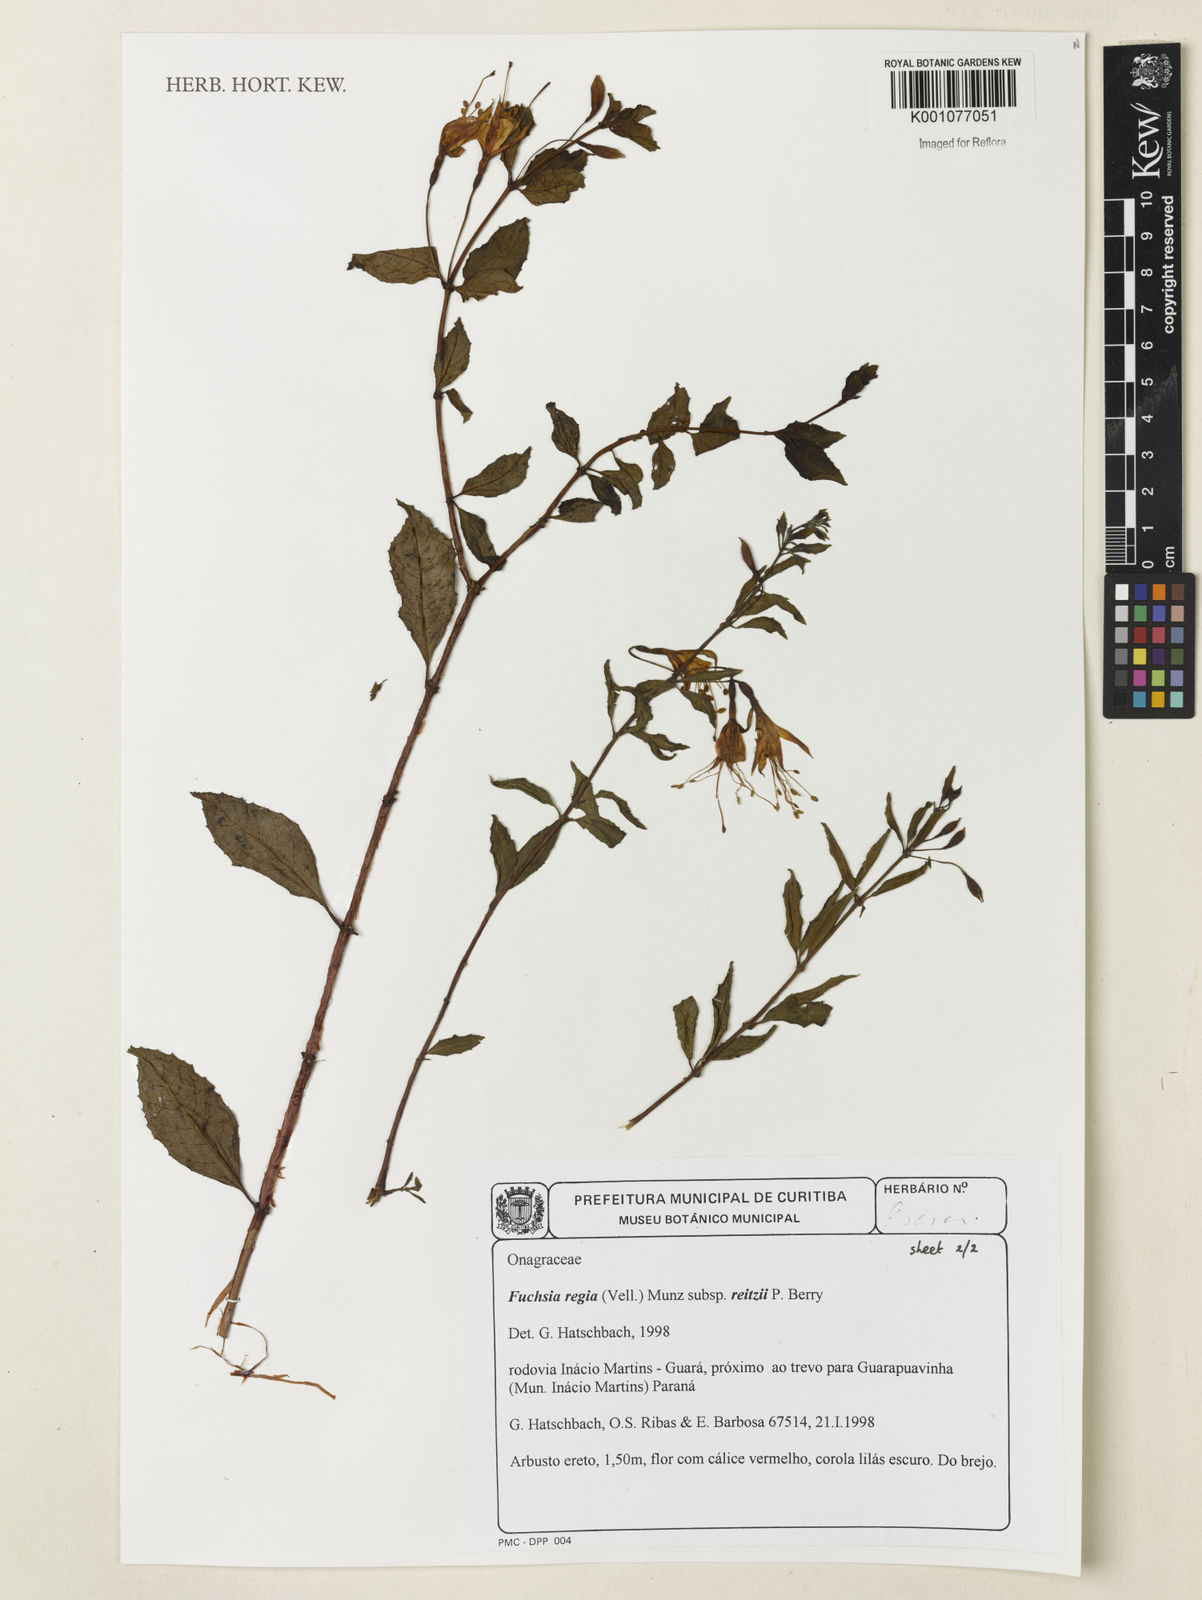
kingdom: Plantae
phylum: Tracheophyta
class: Magnoliopsida
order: Myrtales
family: Onagraceae
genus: Fuchsia
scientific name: Fuchsia regia
